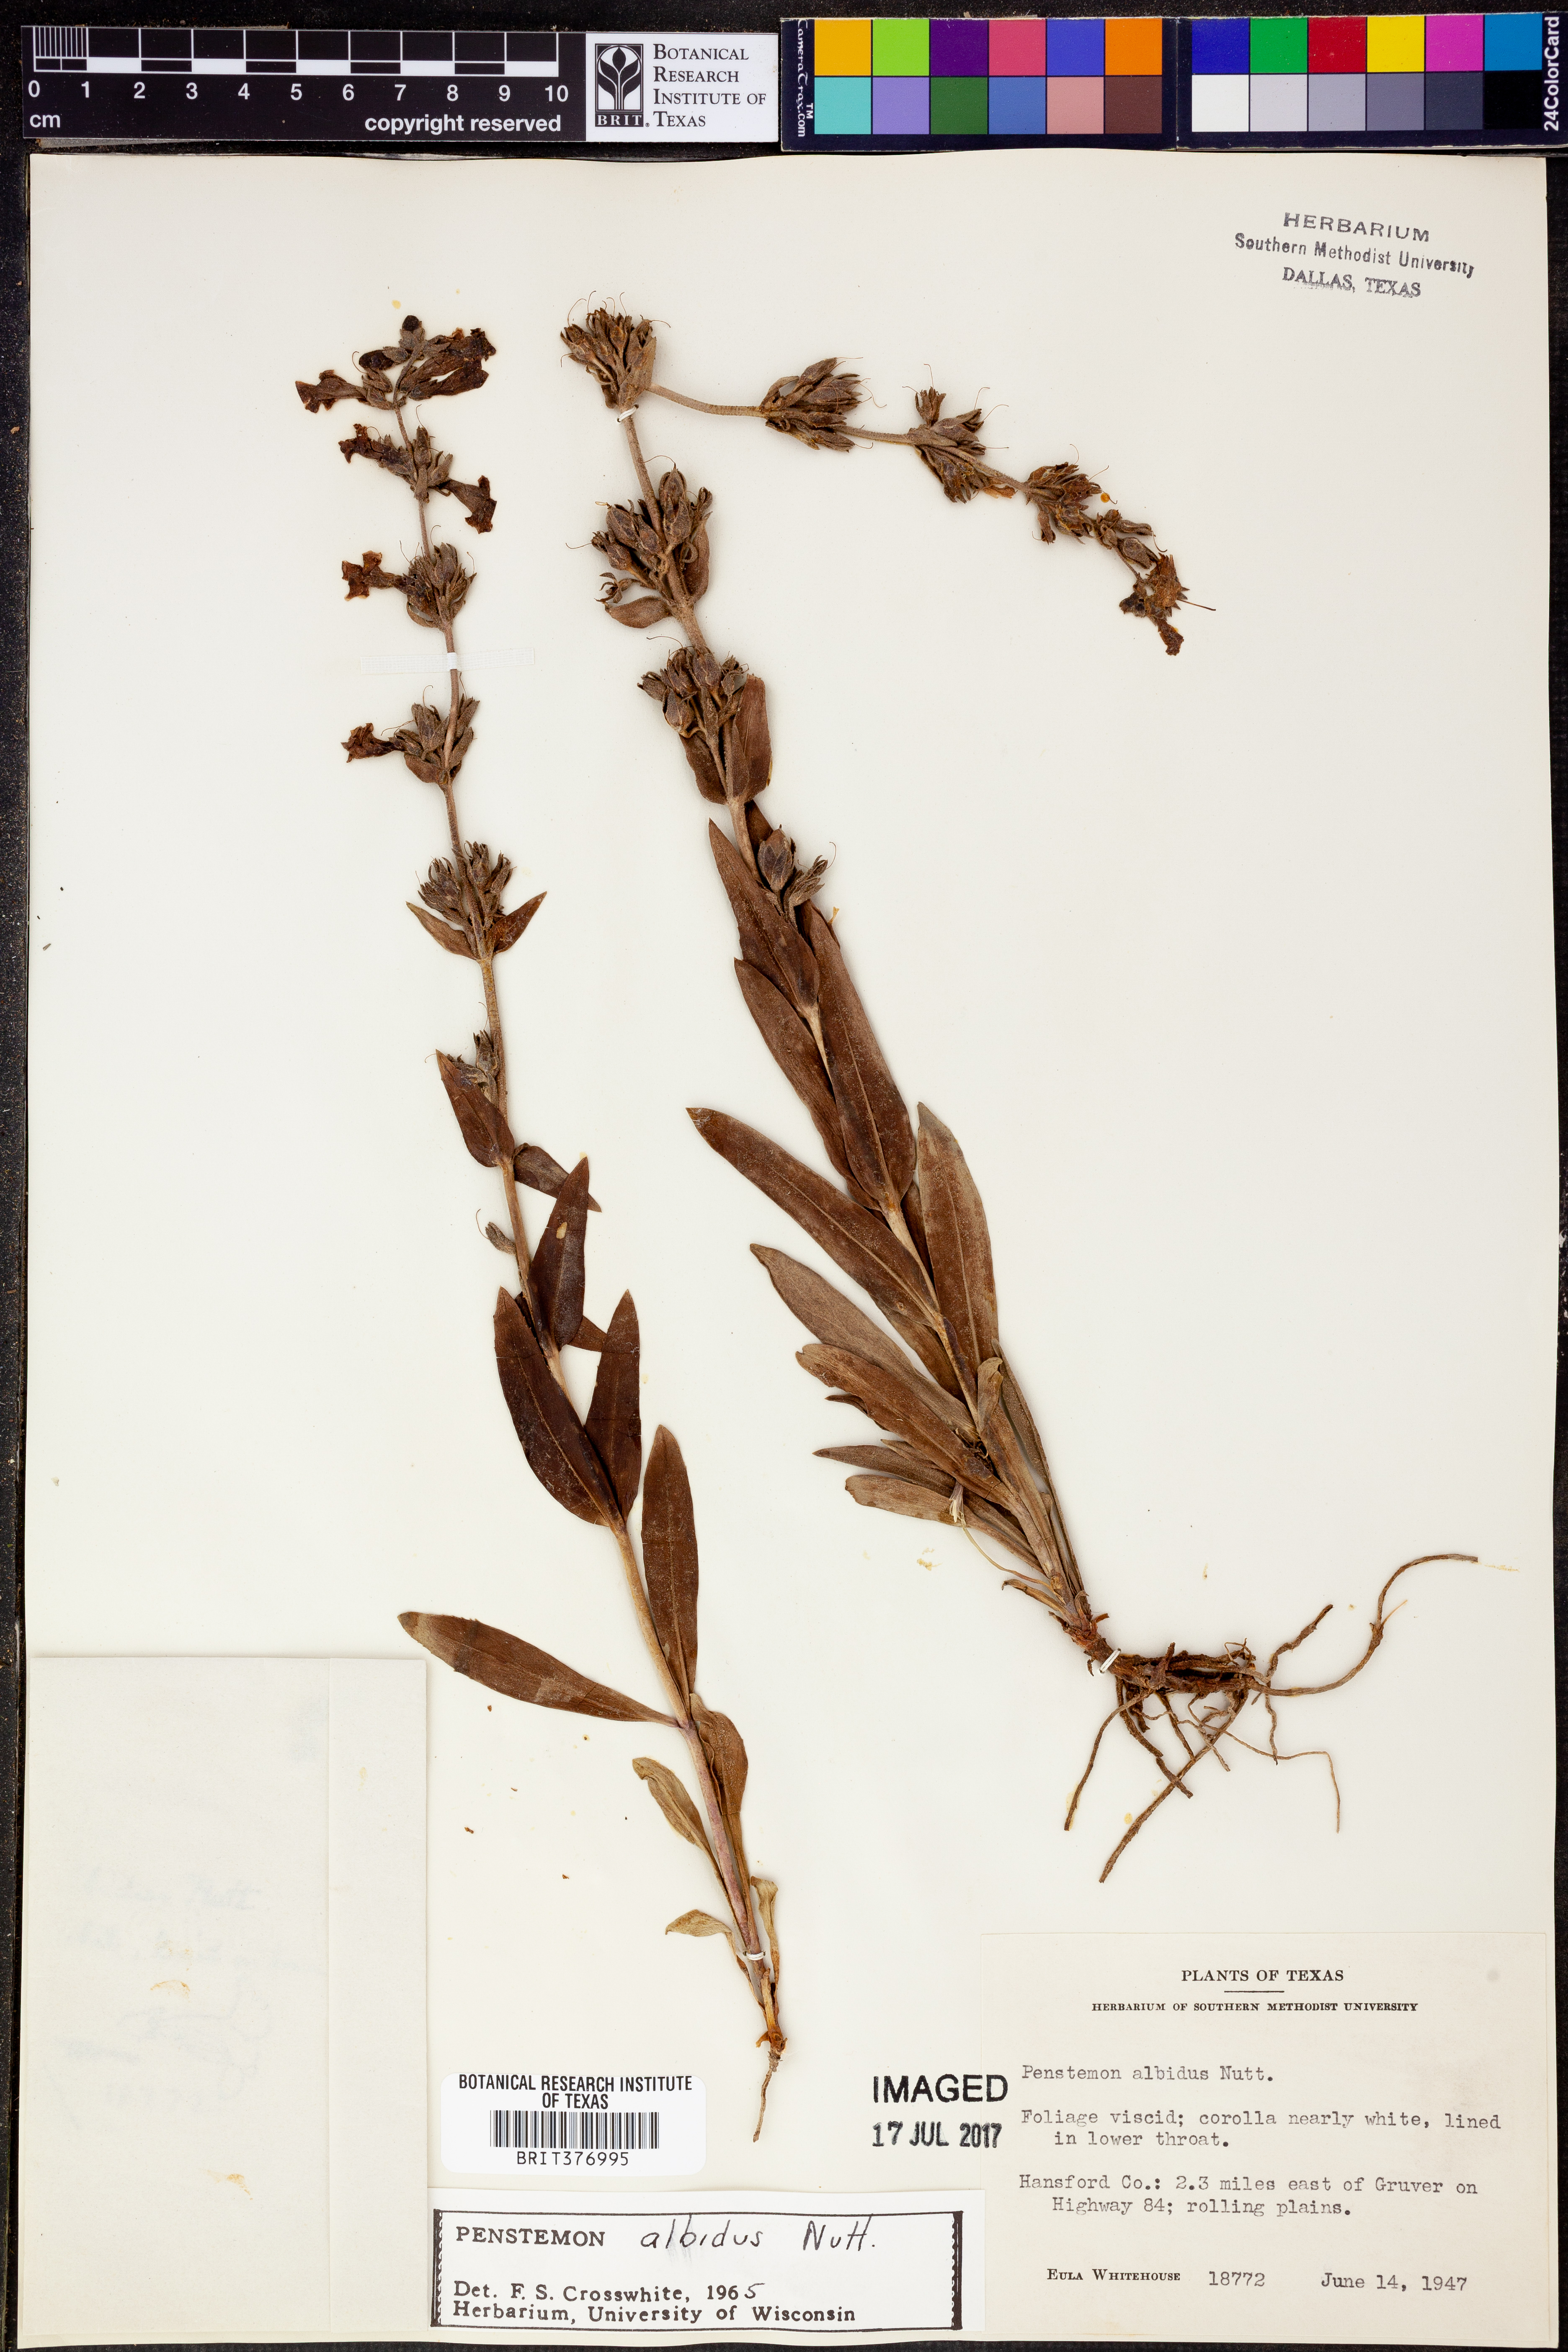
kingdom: Plantae
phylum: Tracheophyta
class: Magnoliopsida
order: Lamiales
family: Plantaginaceae
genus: Penstemon
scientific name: Penstemon albidus
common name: White beardtongue
